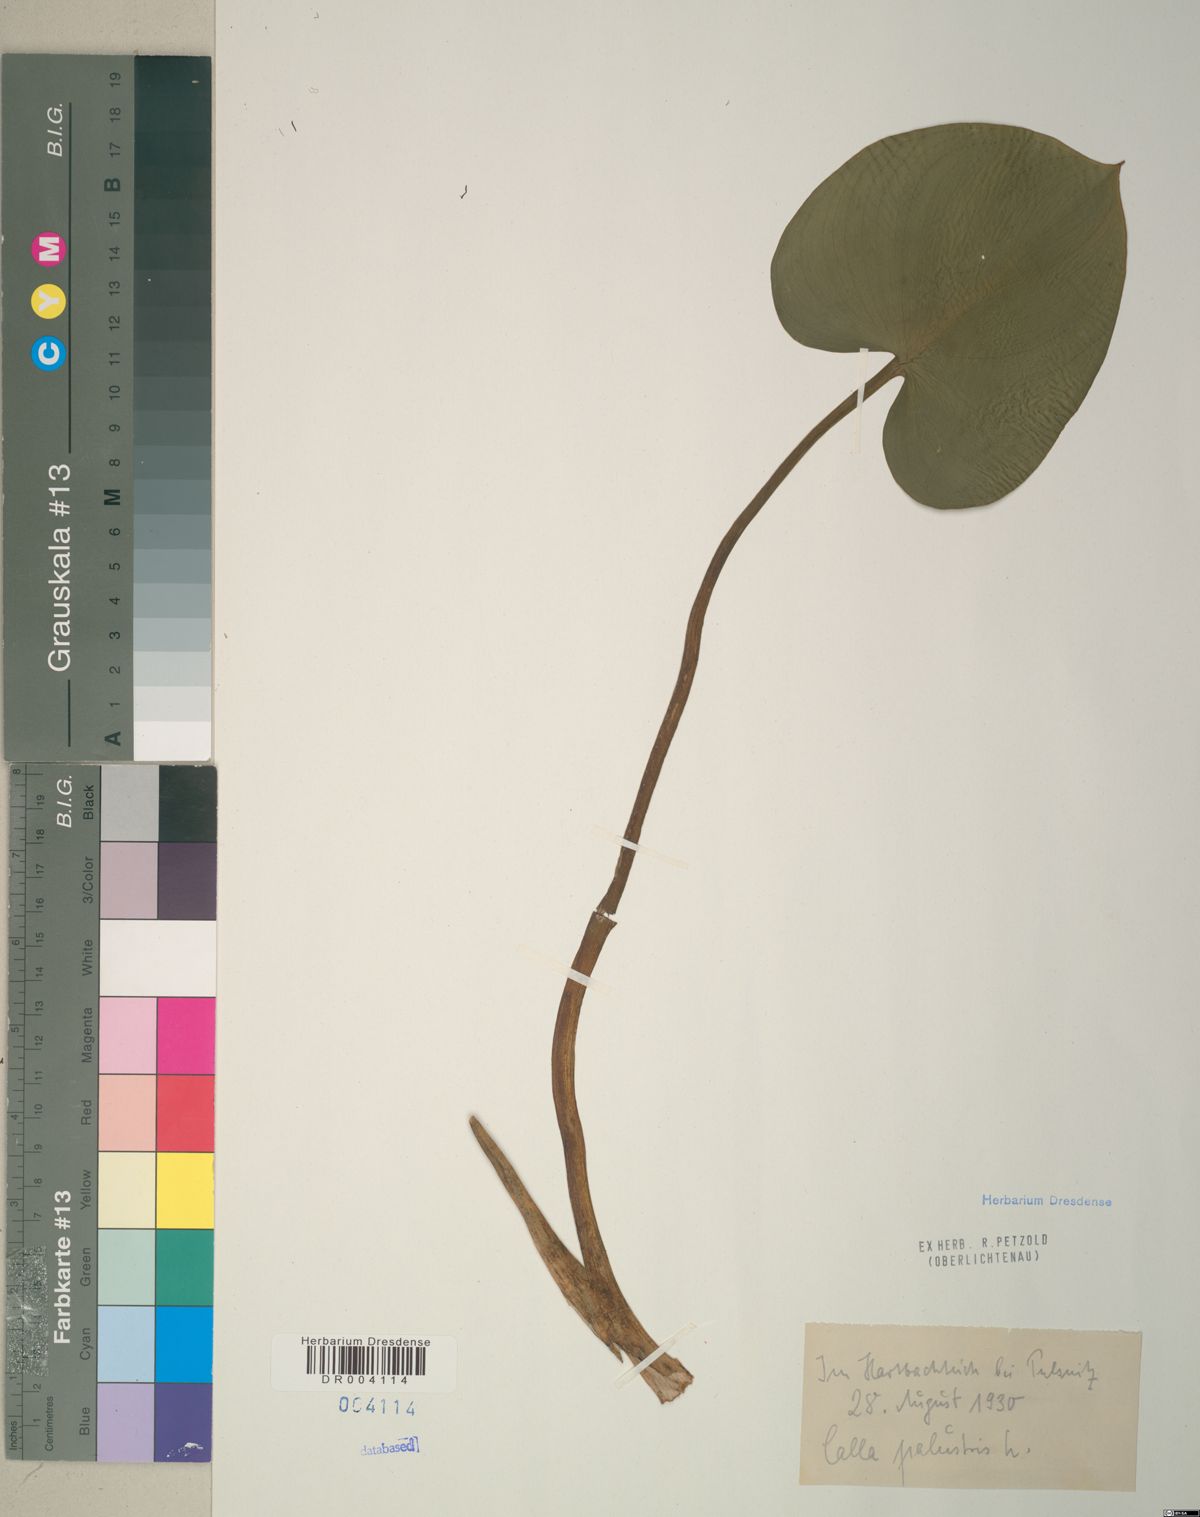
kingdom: Plantae
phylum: Tracheophyta
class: Liliopsida
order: Alismatales
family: Araceae
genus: Calla
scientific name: Calla palustris
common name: Bog arum
